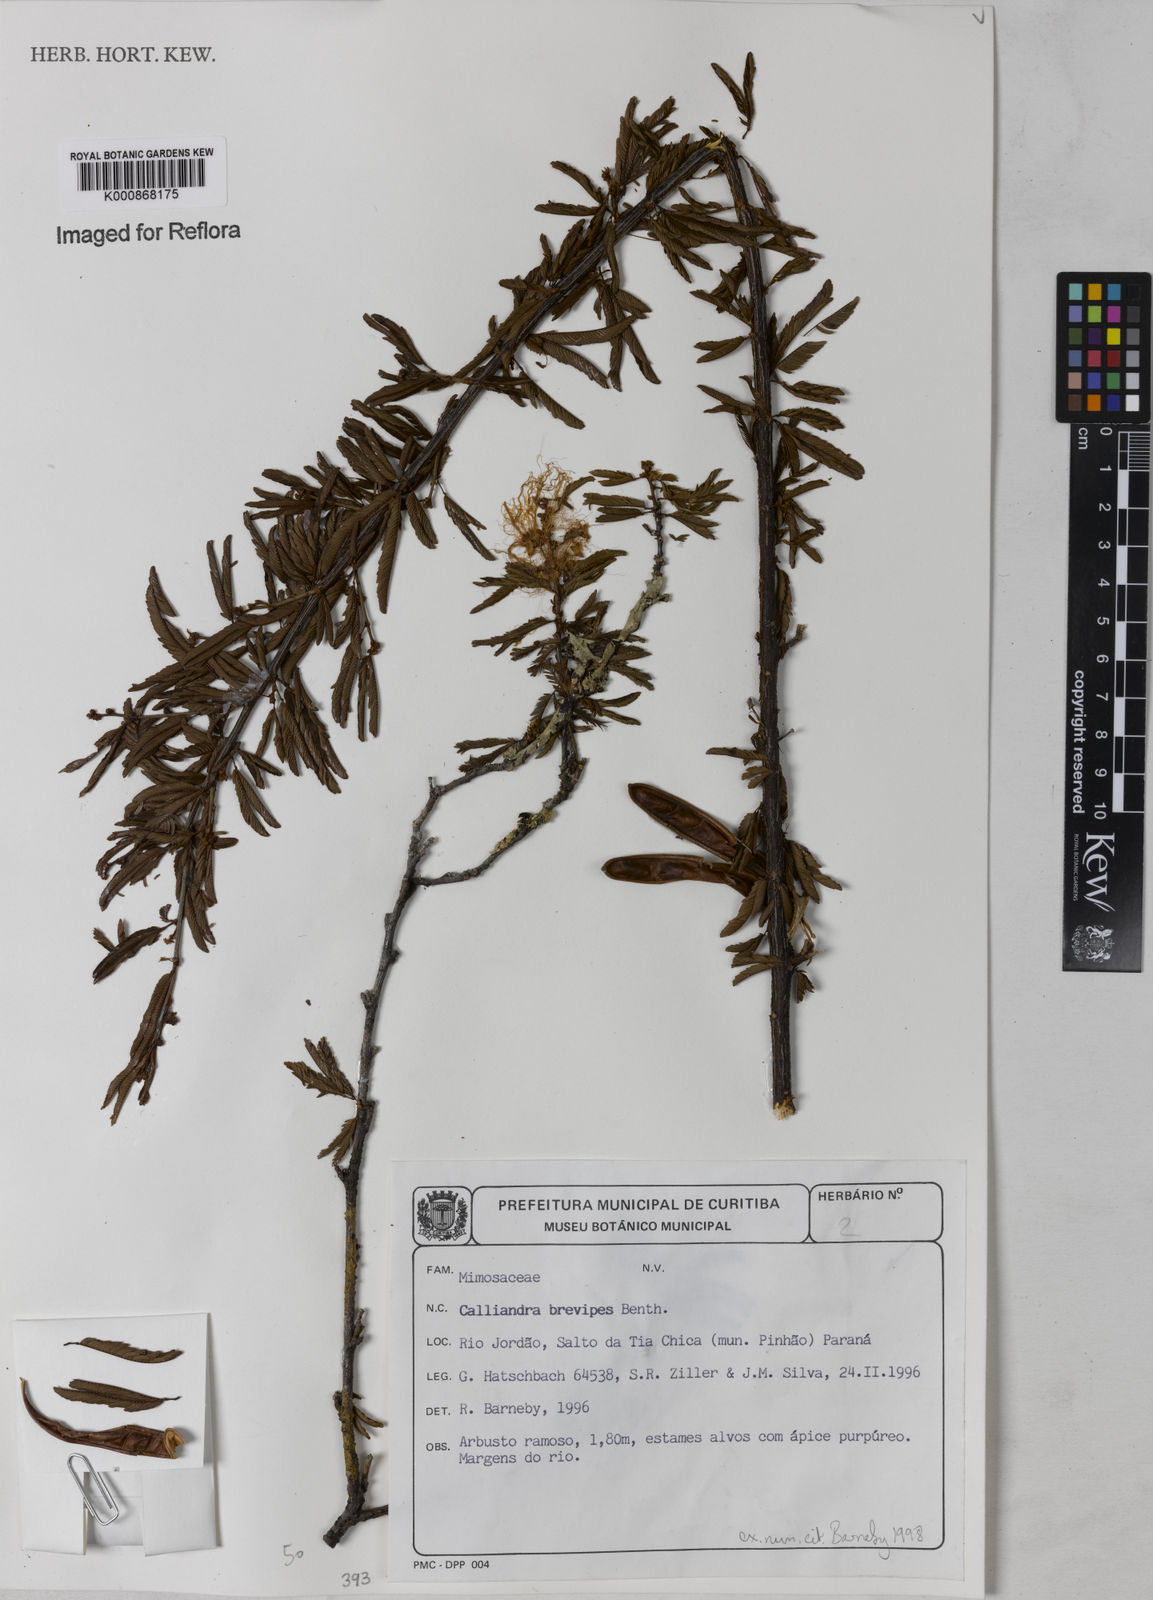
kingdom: Plantae
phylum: Tracheophyta
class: Magnoliopsida
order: Fabales
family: Fabaceae
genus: Calliandra
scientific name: Calliandra selloi
